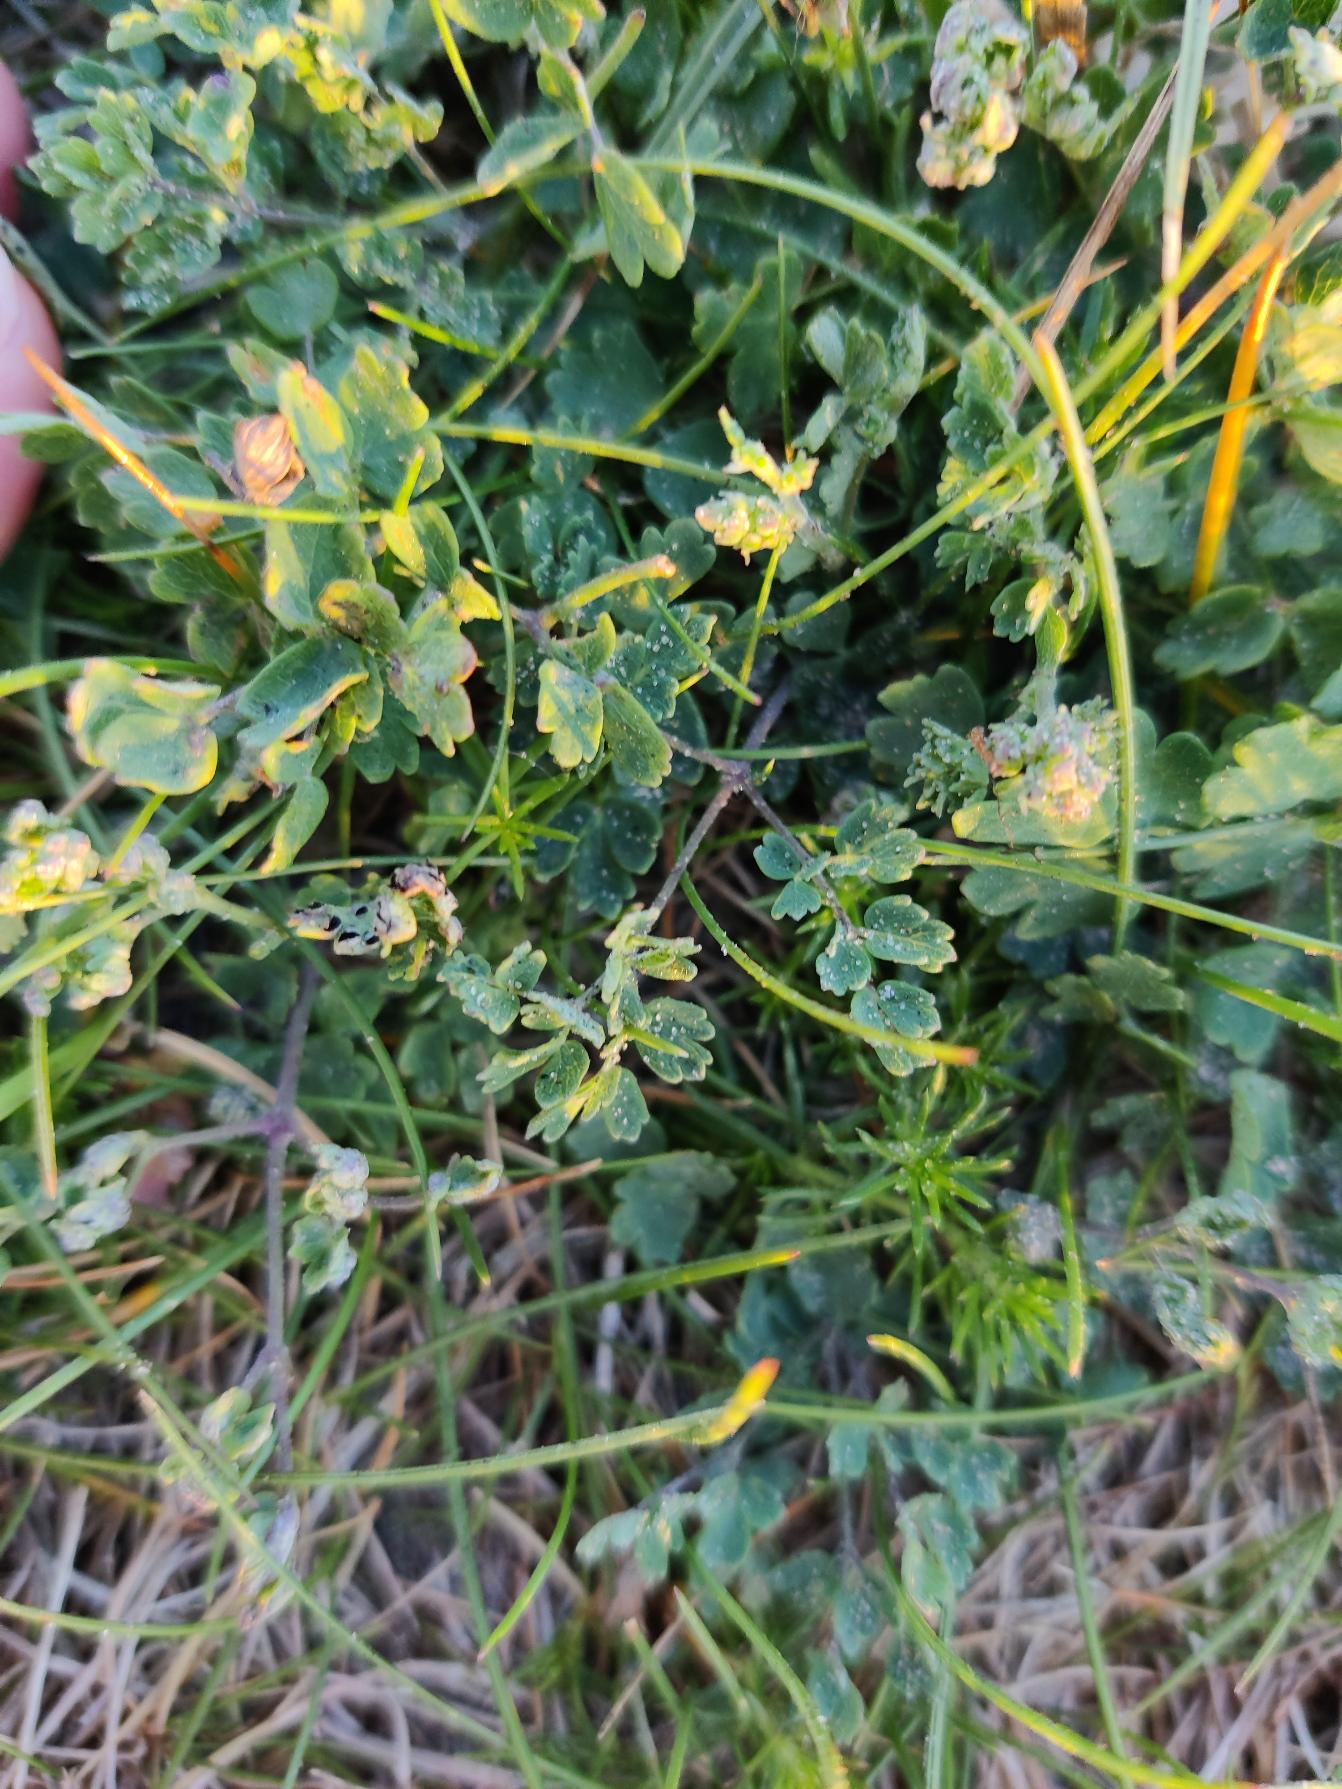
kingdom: Plantae
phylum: Tracheophyta
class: Magnoliopsida
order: Ranunculales
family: Ranunculaceae
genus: Thalictrum
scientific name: Thalictrum minus
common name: Liden frøstjerne
